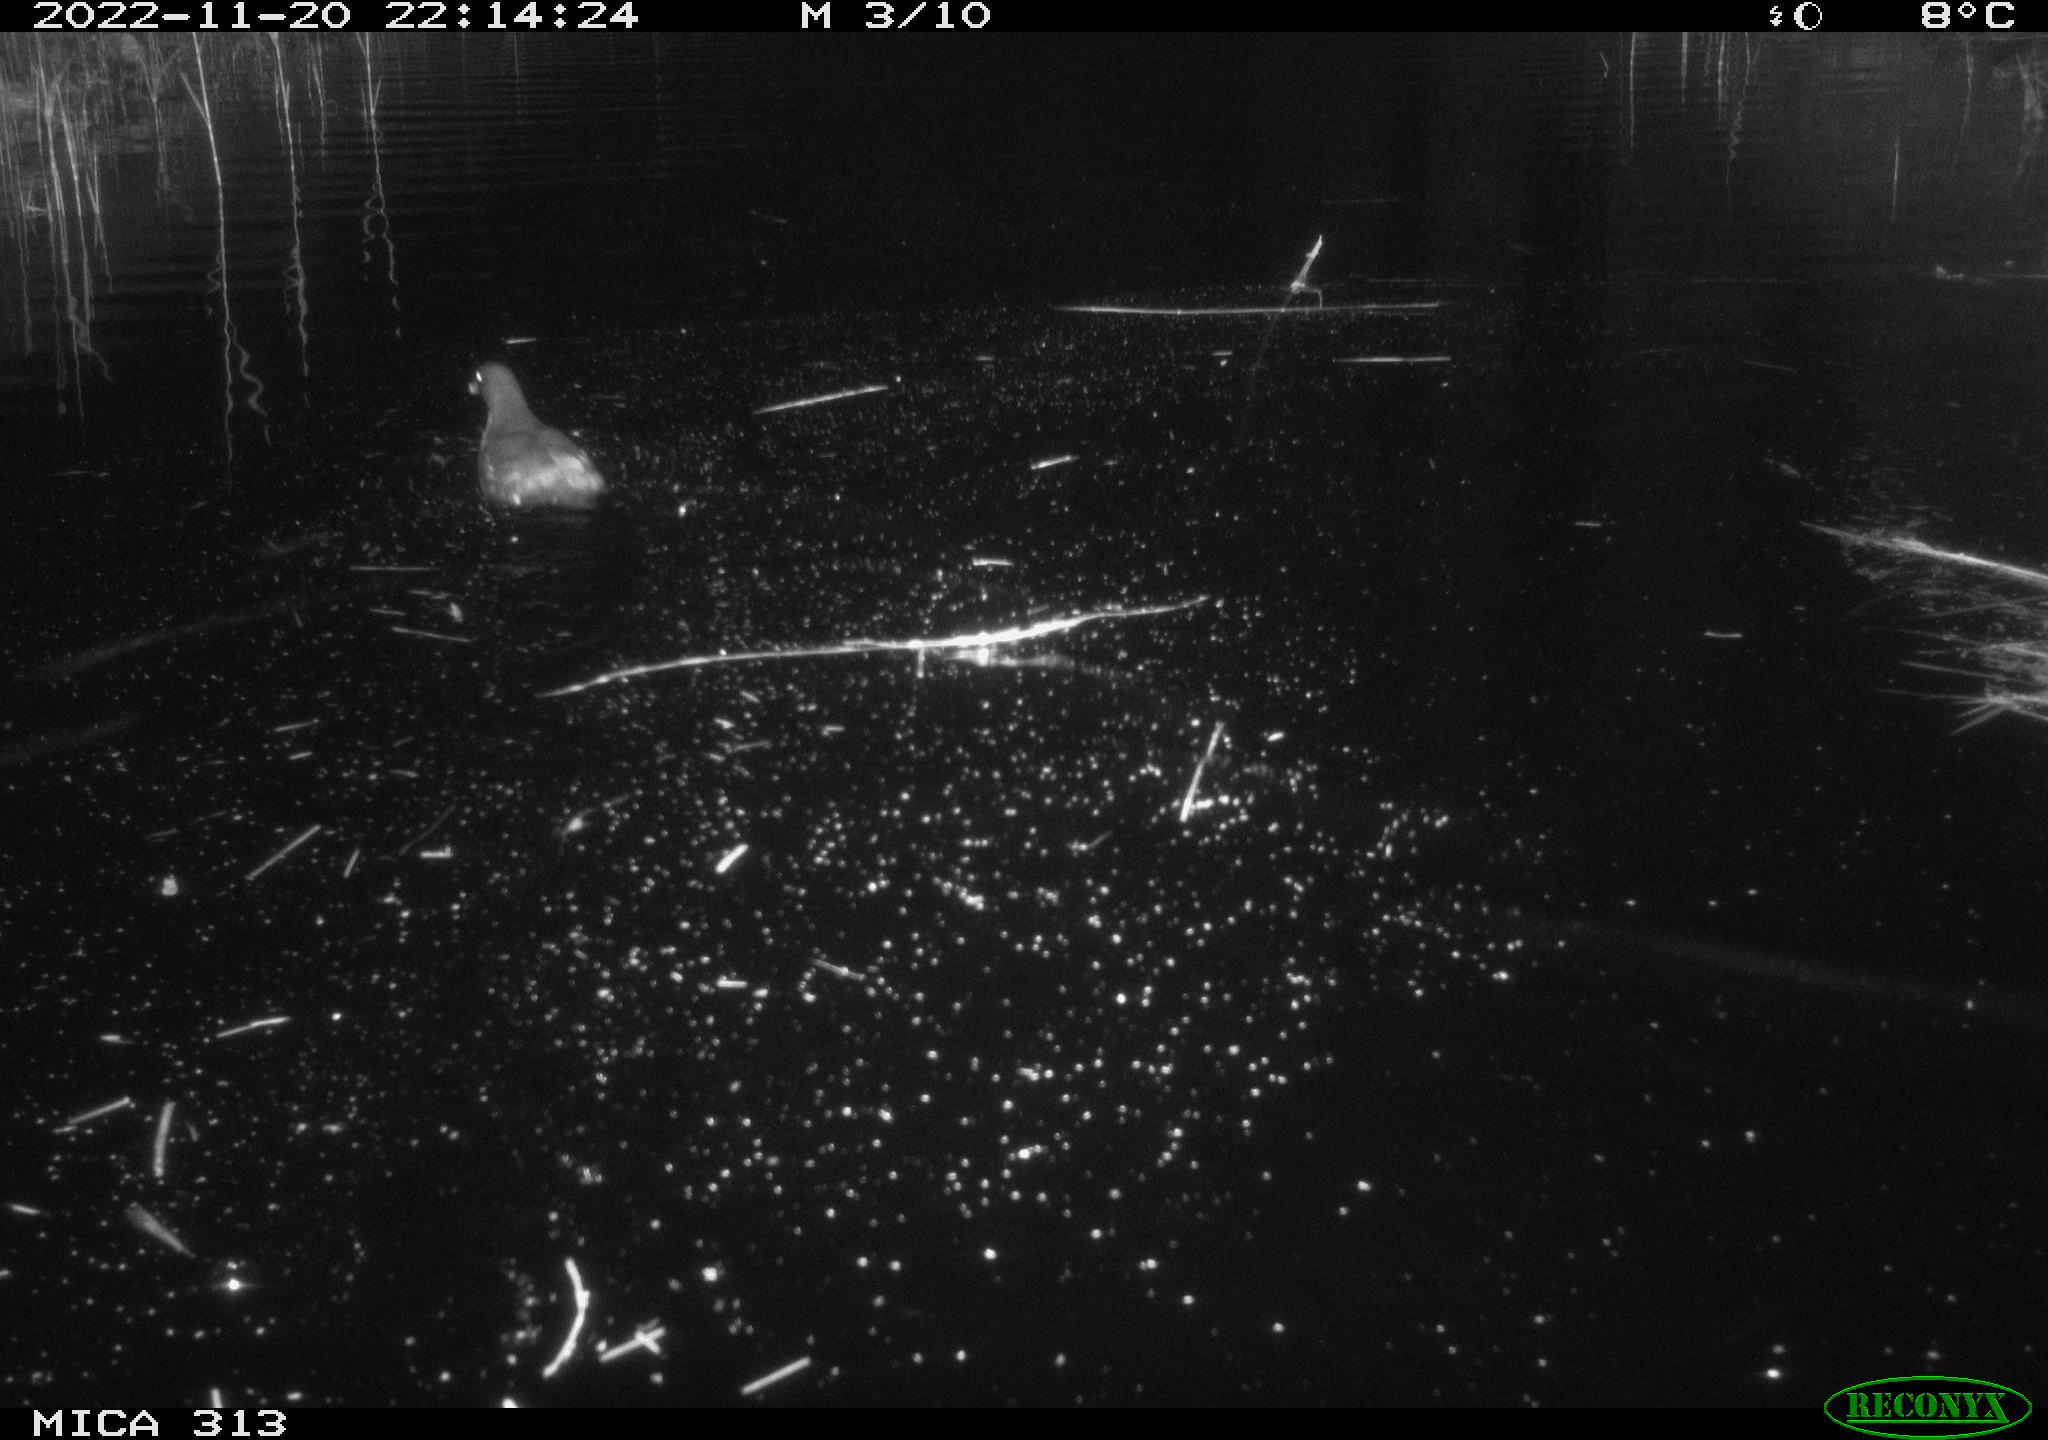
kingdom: Animalia
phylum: Chordata
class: Aves
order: Gruiformes
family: Rallidae
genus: Gallinula
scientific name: Gallinula chloropus
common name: Common moorhen
